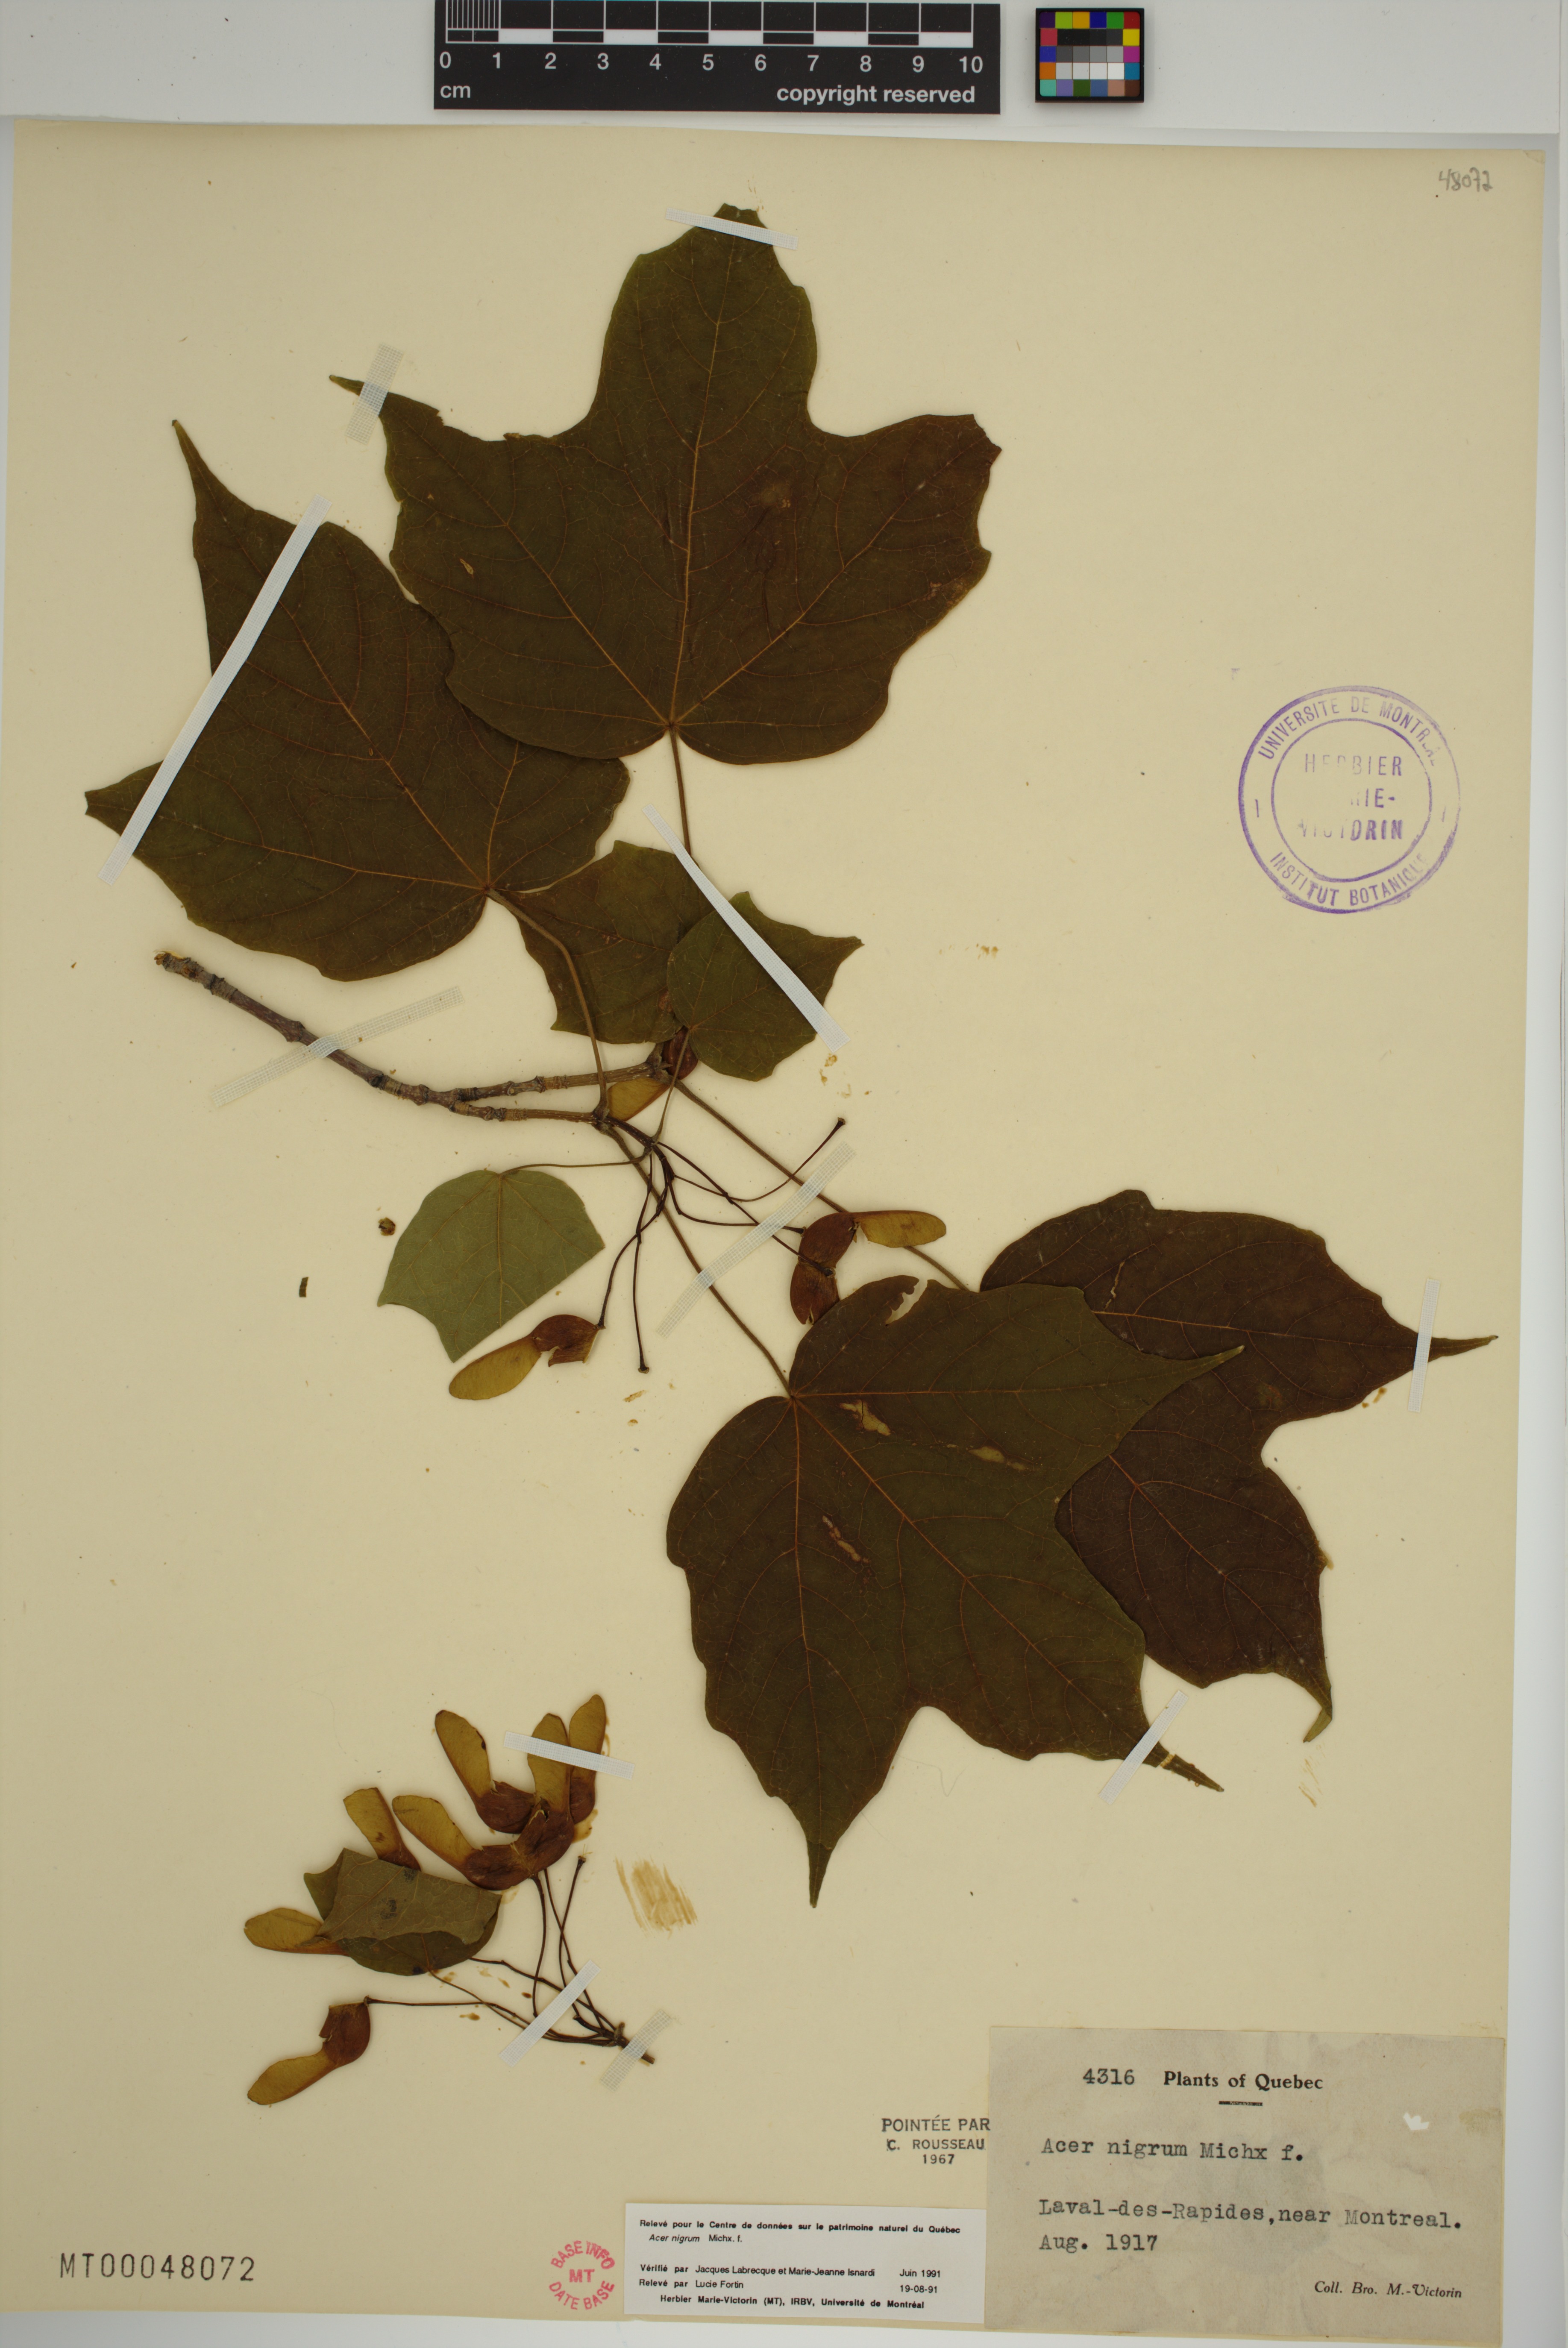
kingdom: Plantae
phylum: Tracheophyta
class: Magnoliopsida
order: Sapindales
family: Sapindaceae
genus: Acer
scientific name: Acer nigrum
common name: Black maple
